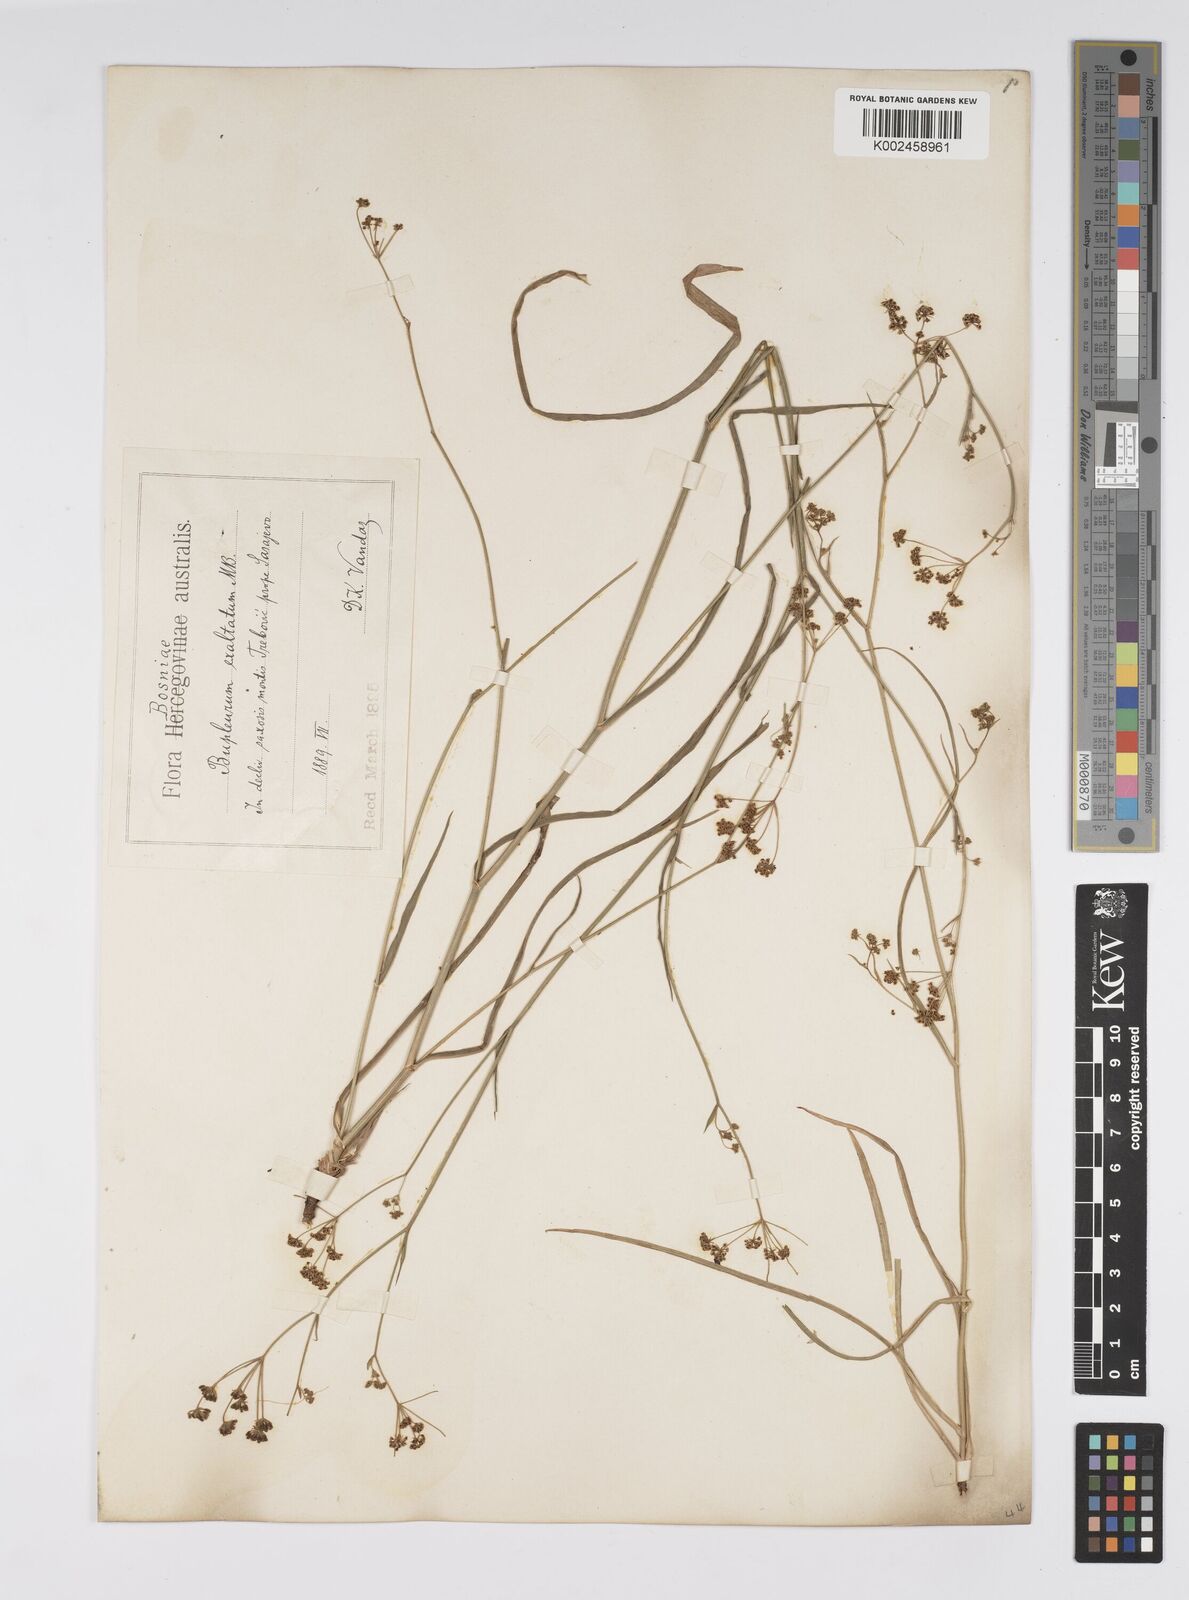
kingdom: Plantae
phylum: Tracheophyta
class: Magnoliopsida
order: Apiales
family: Apiaceae
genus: Bupleurum
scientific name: Bupleurum falcatum
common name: Sickle-leaved hare's-ear
